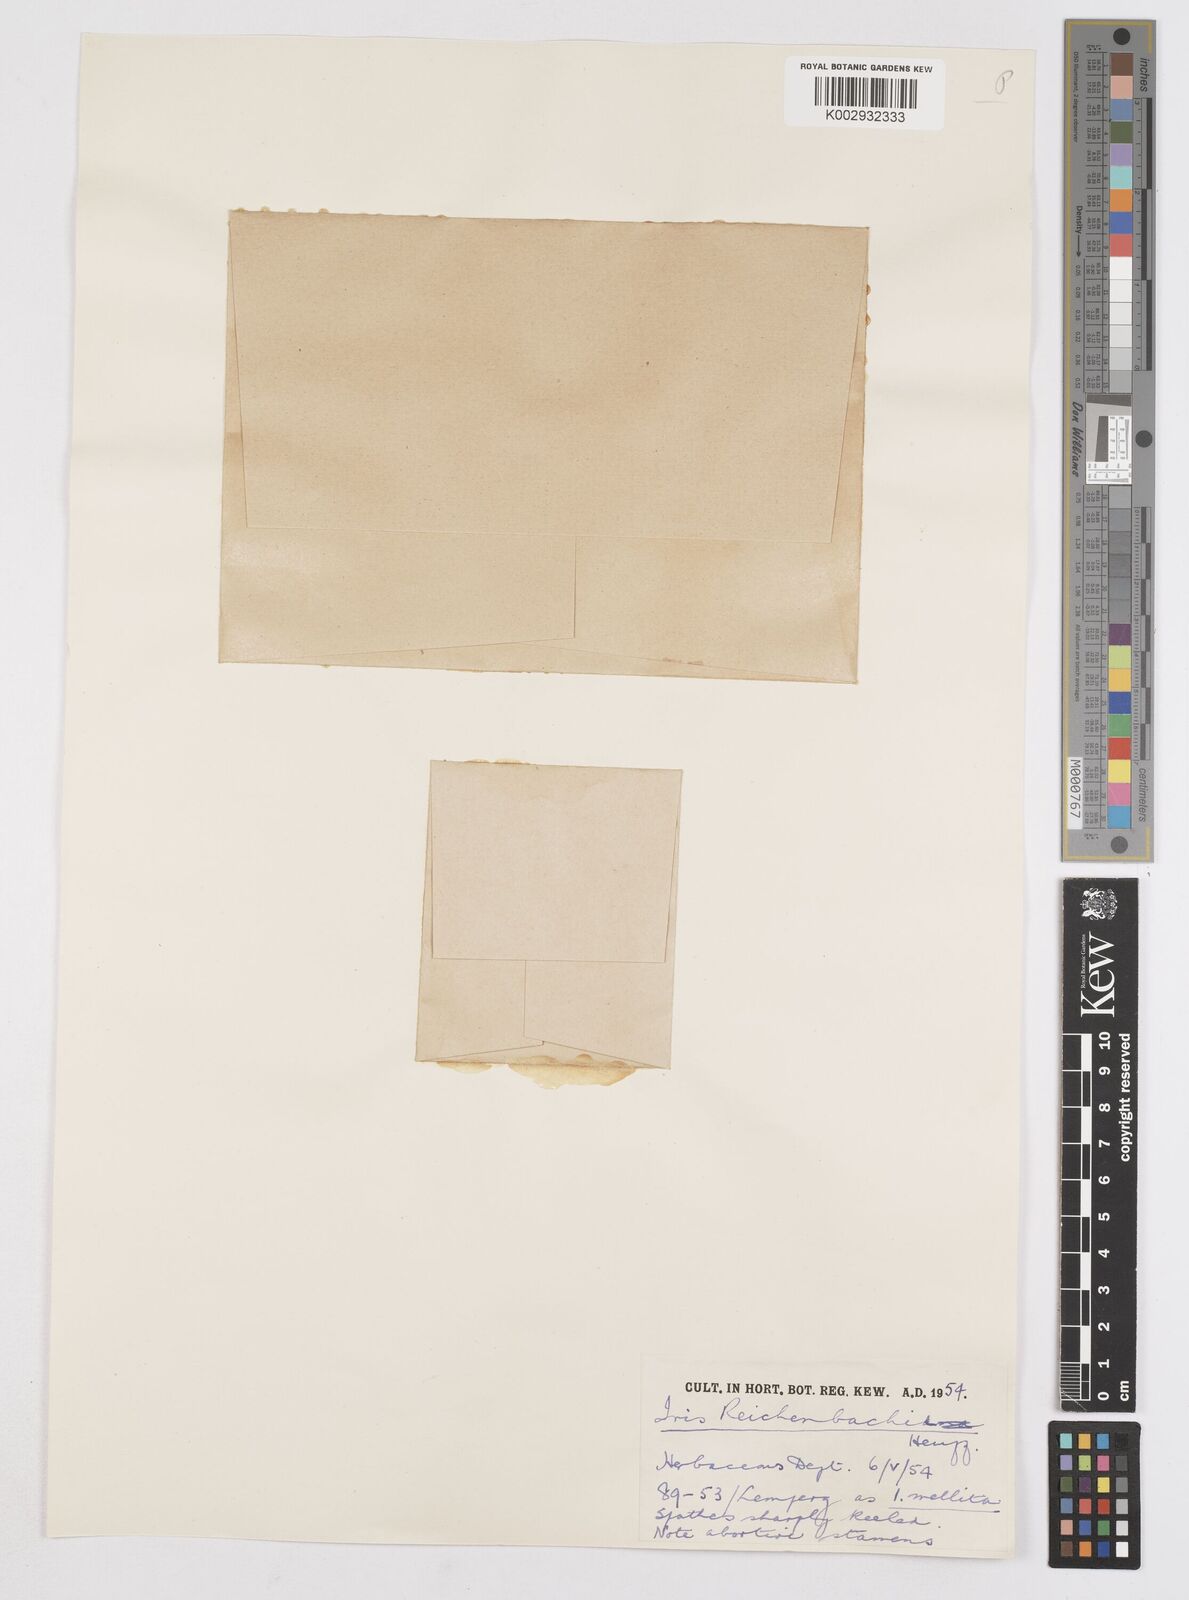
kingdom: Plantae
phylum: Tracheophyta
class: Liliopsida
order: Asparagales
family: Iridaceae
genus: Iris
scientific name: Iris reichenbachii
